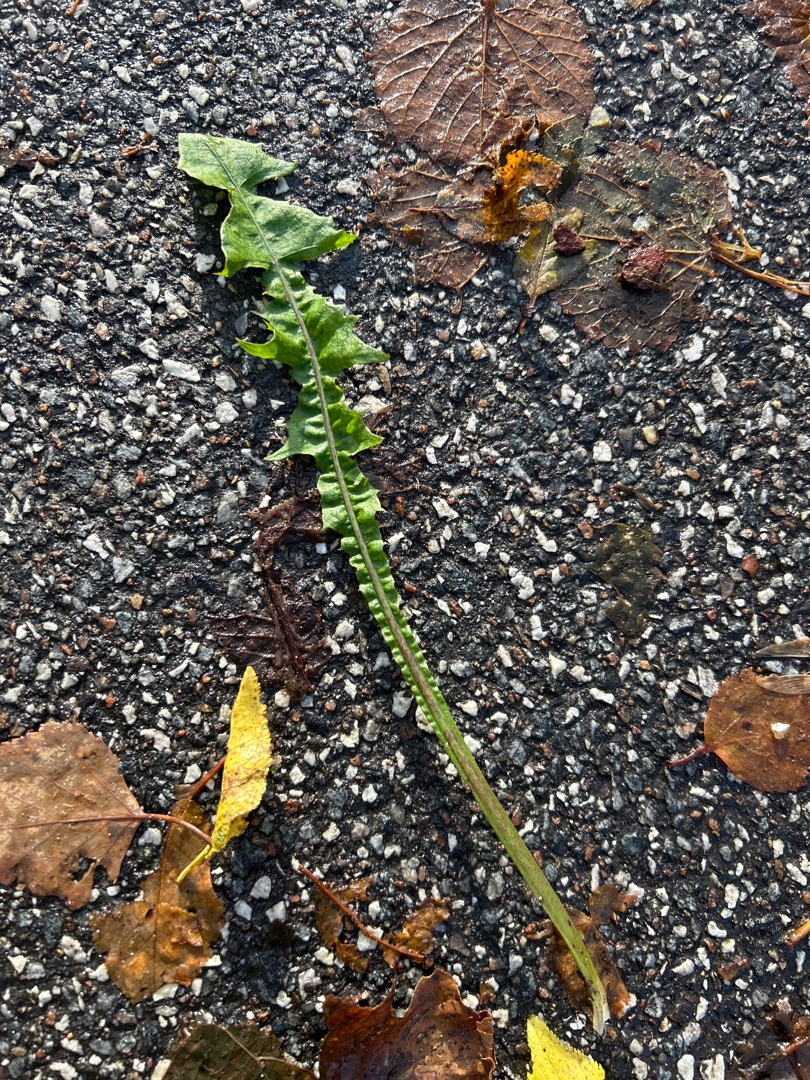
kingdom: Plantae
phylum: Tracheophyta
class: Magnoliopsida
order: Asterales
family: Asteraceae
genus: Taraxacum
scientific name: Taraxacum
